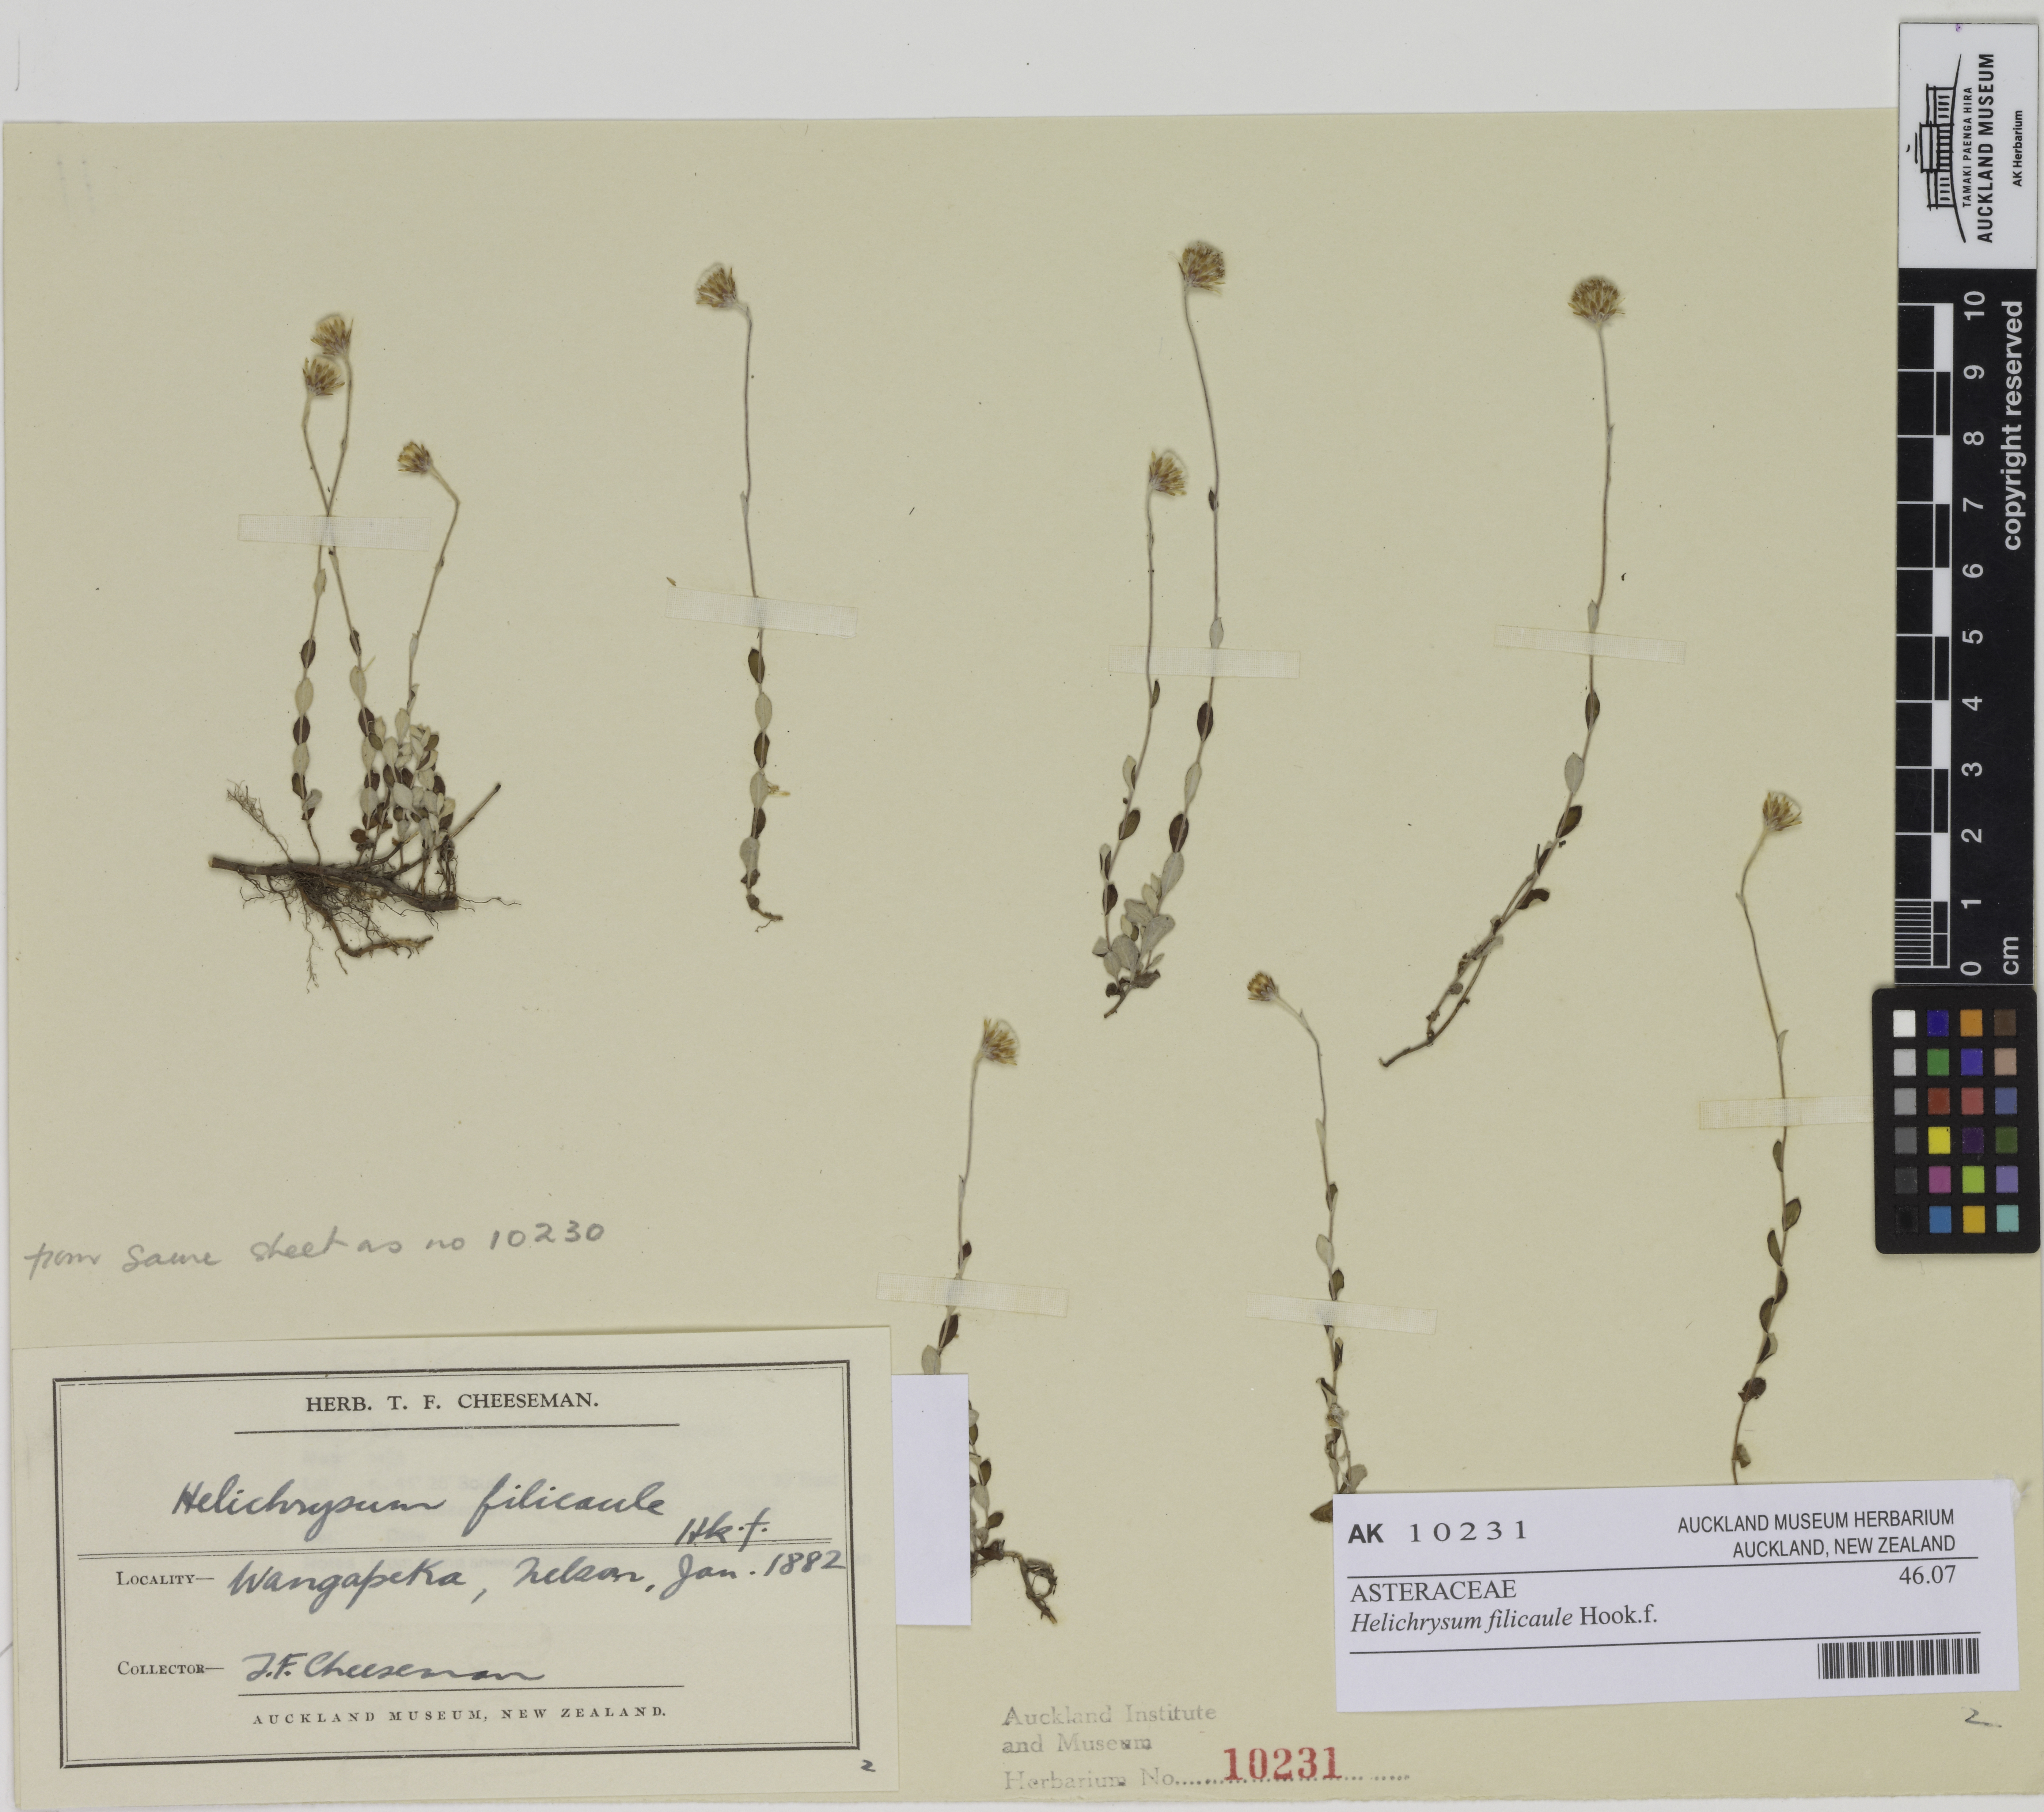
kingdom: Plantae
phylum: Tracheophyta
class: Magnoliopsida
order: Asterales
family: Asteraceae
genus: Helichrysum
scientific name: Helichrysum filicaule
